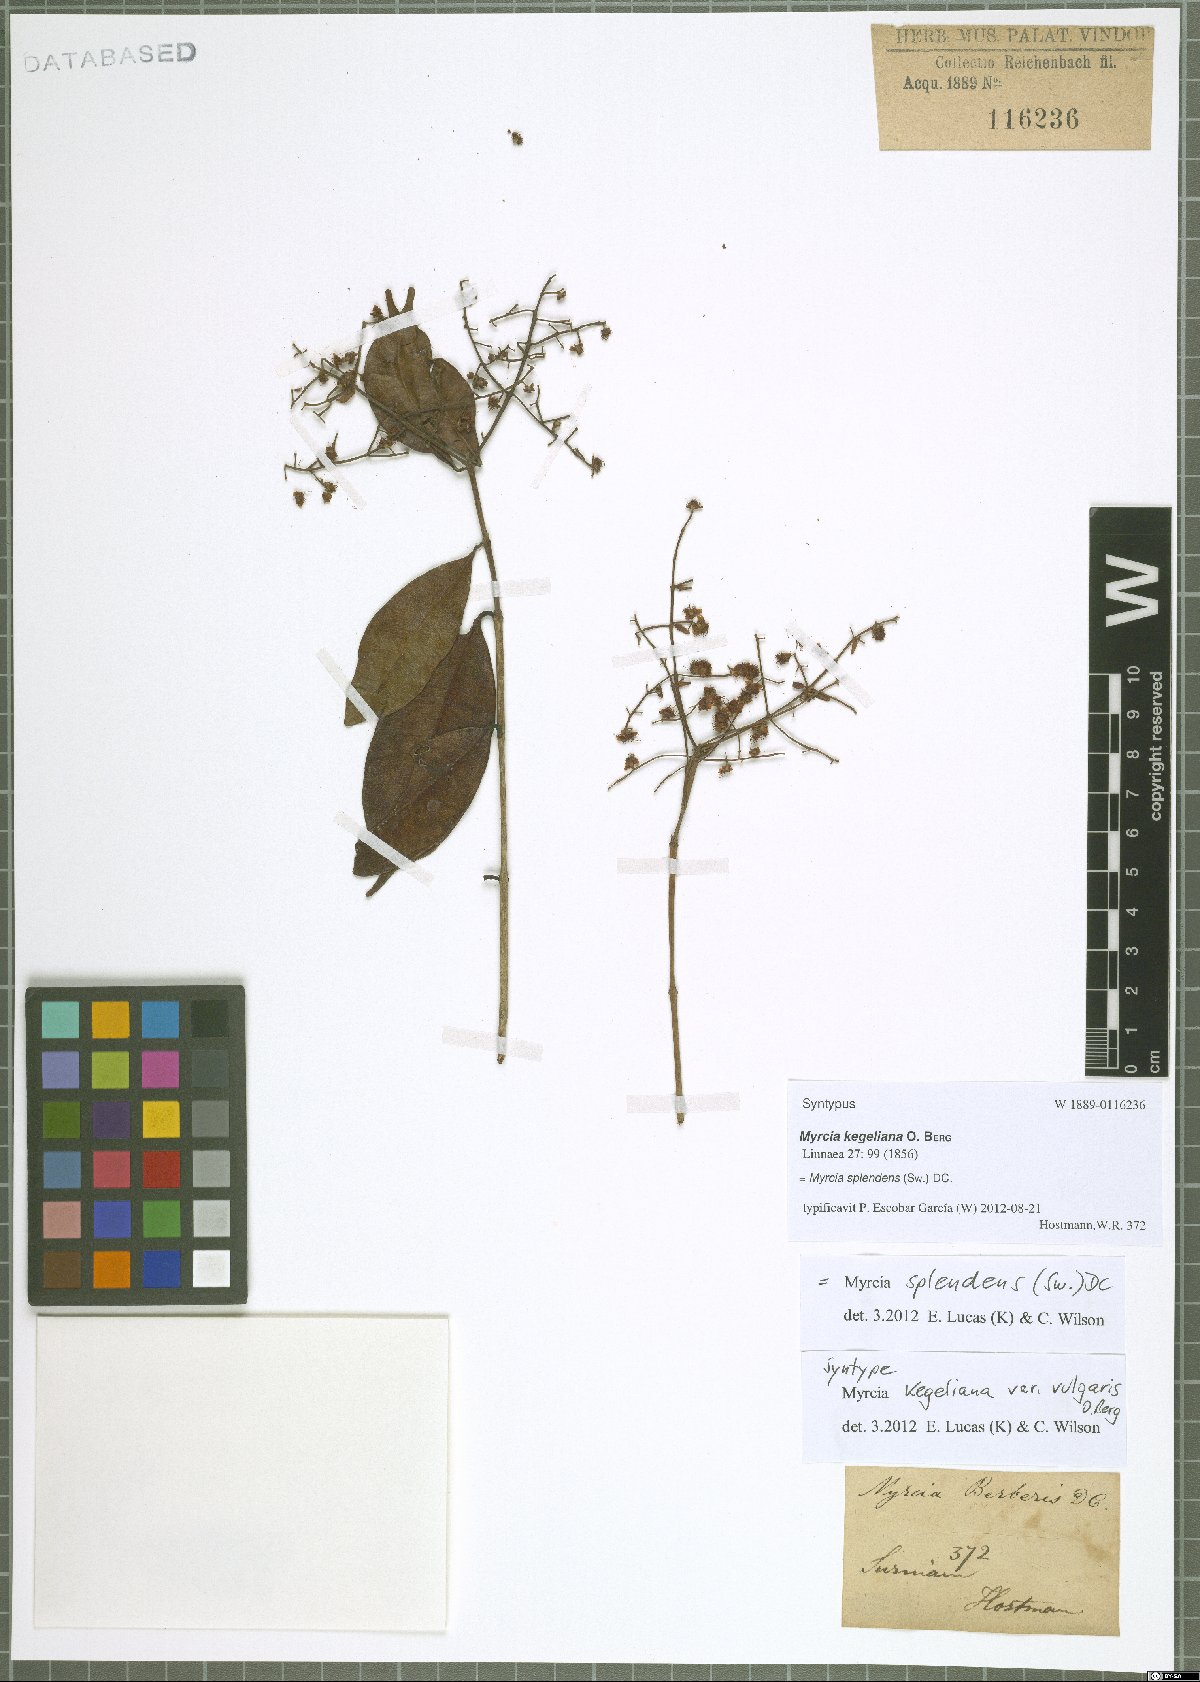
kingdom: Plantae
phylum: Tracheophyta
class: Magnoliopsida
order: Myrtales
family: Myrtaceae
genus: Myrcia
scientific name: Myrcia splendens
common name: Surinam cherry
